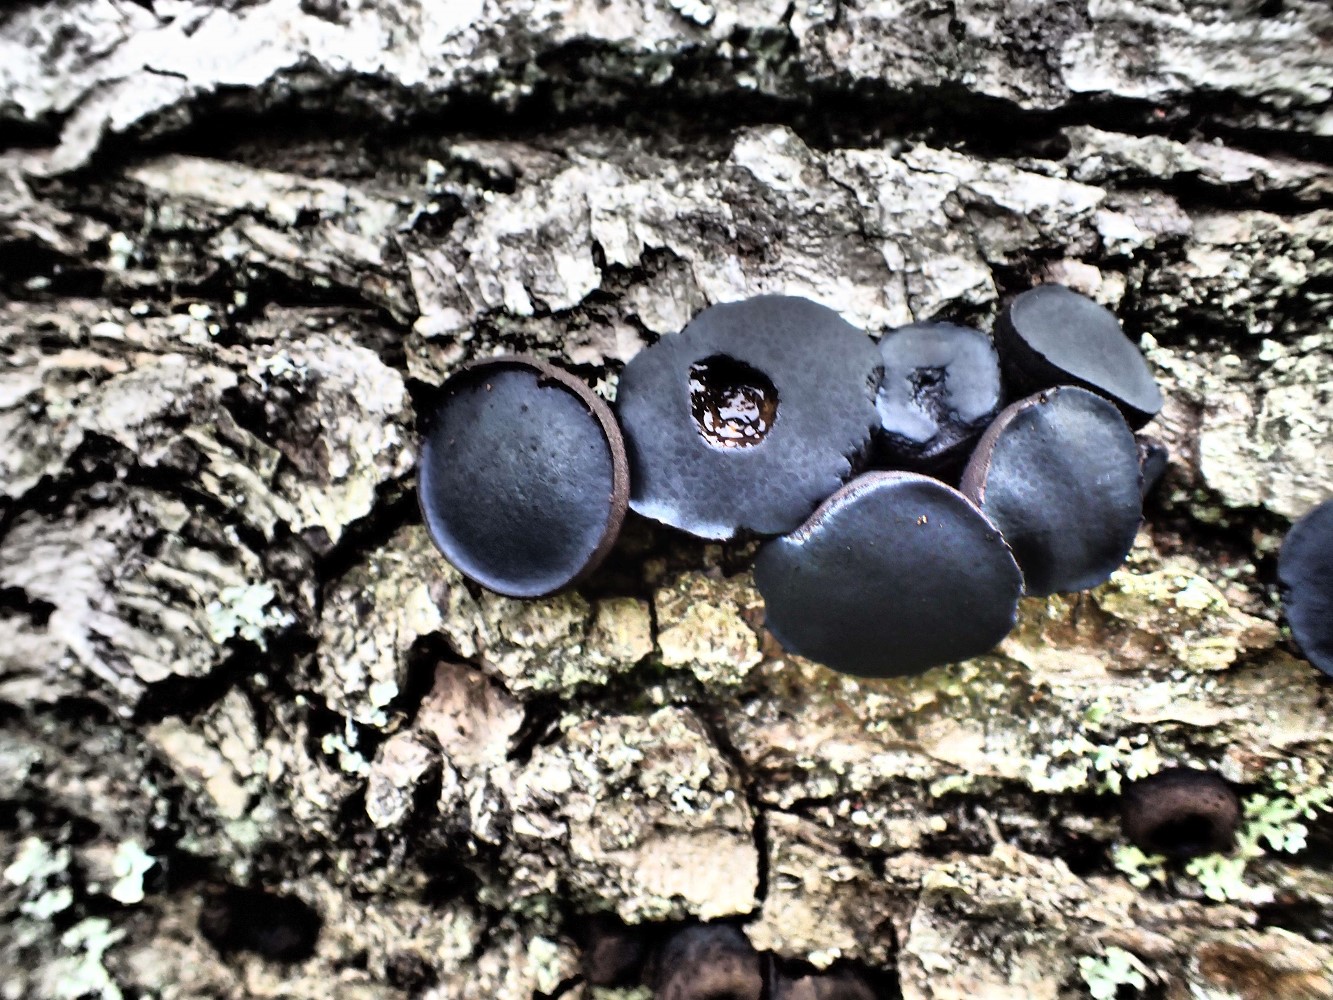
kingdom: Fungi
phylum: Ascomycota
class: Leotiomycetes
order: Phacidiales
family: Phacidiaceae
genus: Bulgaria
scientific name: Bulgaria inquinans
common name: afsmittende topsvamp
